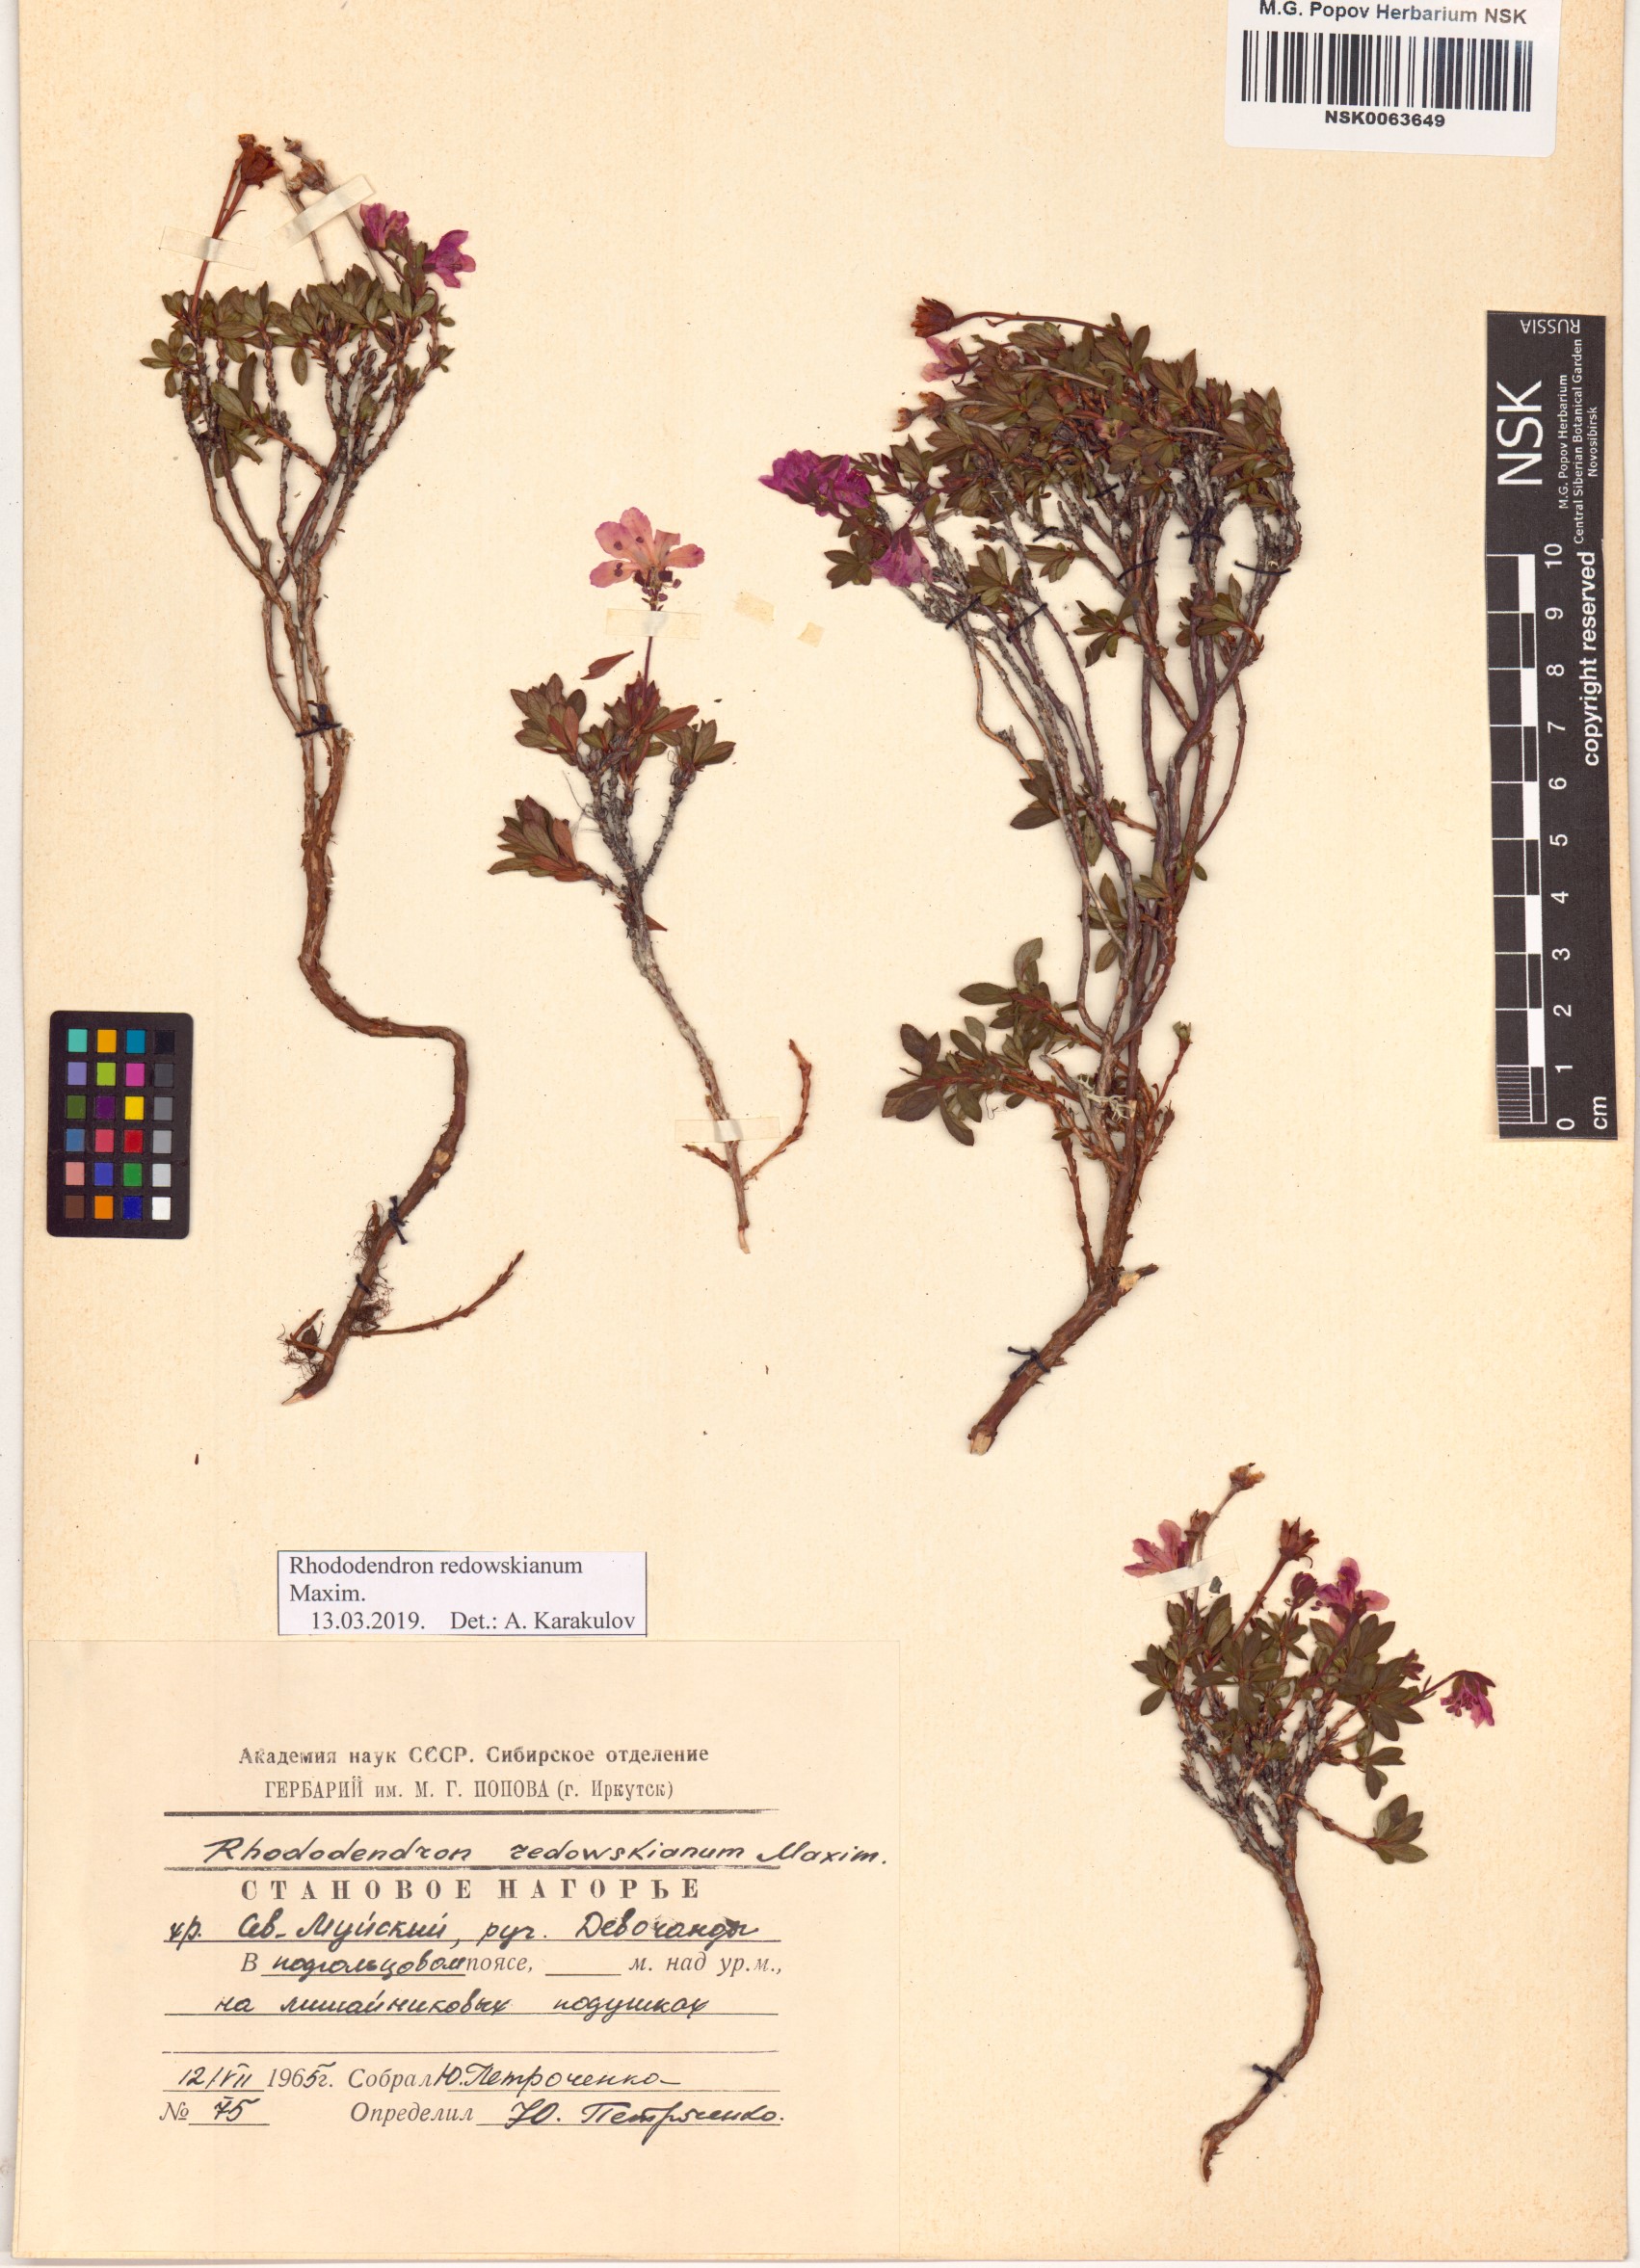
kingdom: Plantae
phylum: Tracheophyta
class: Magnoliopsida
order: Ericales
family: Ericaceae
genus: Rhododendron
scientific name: Rhododendron redowskianum
